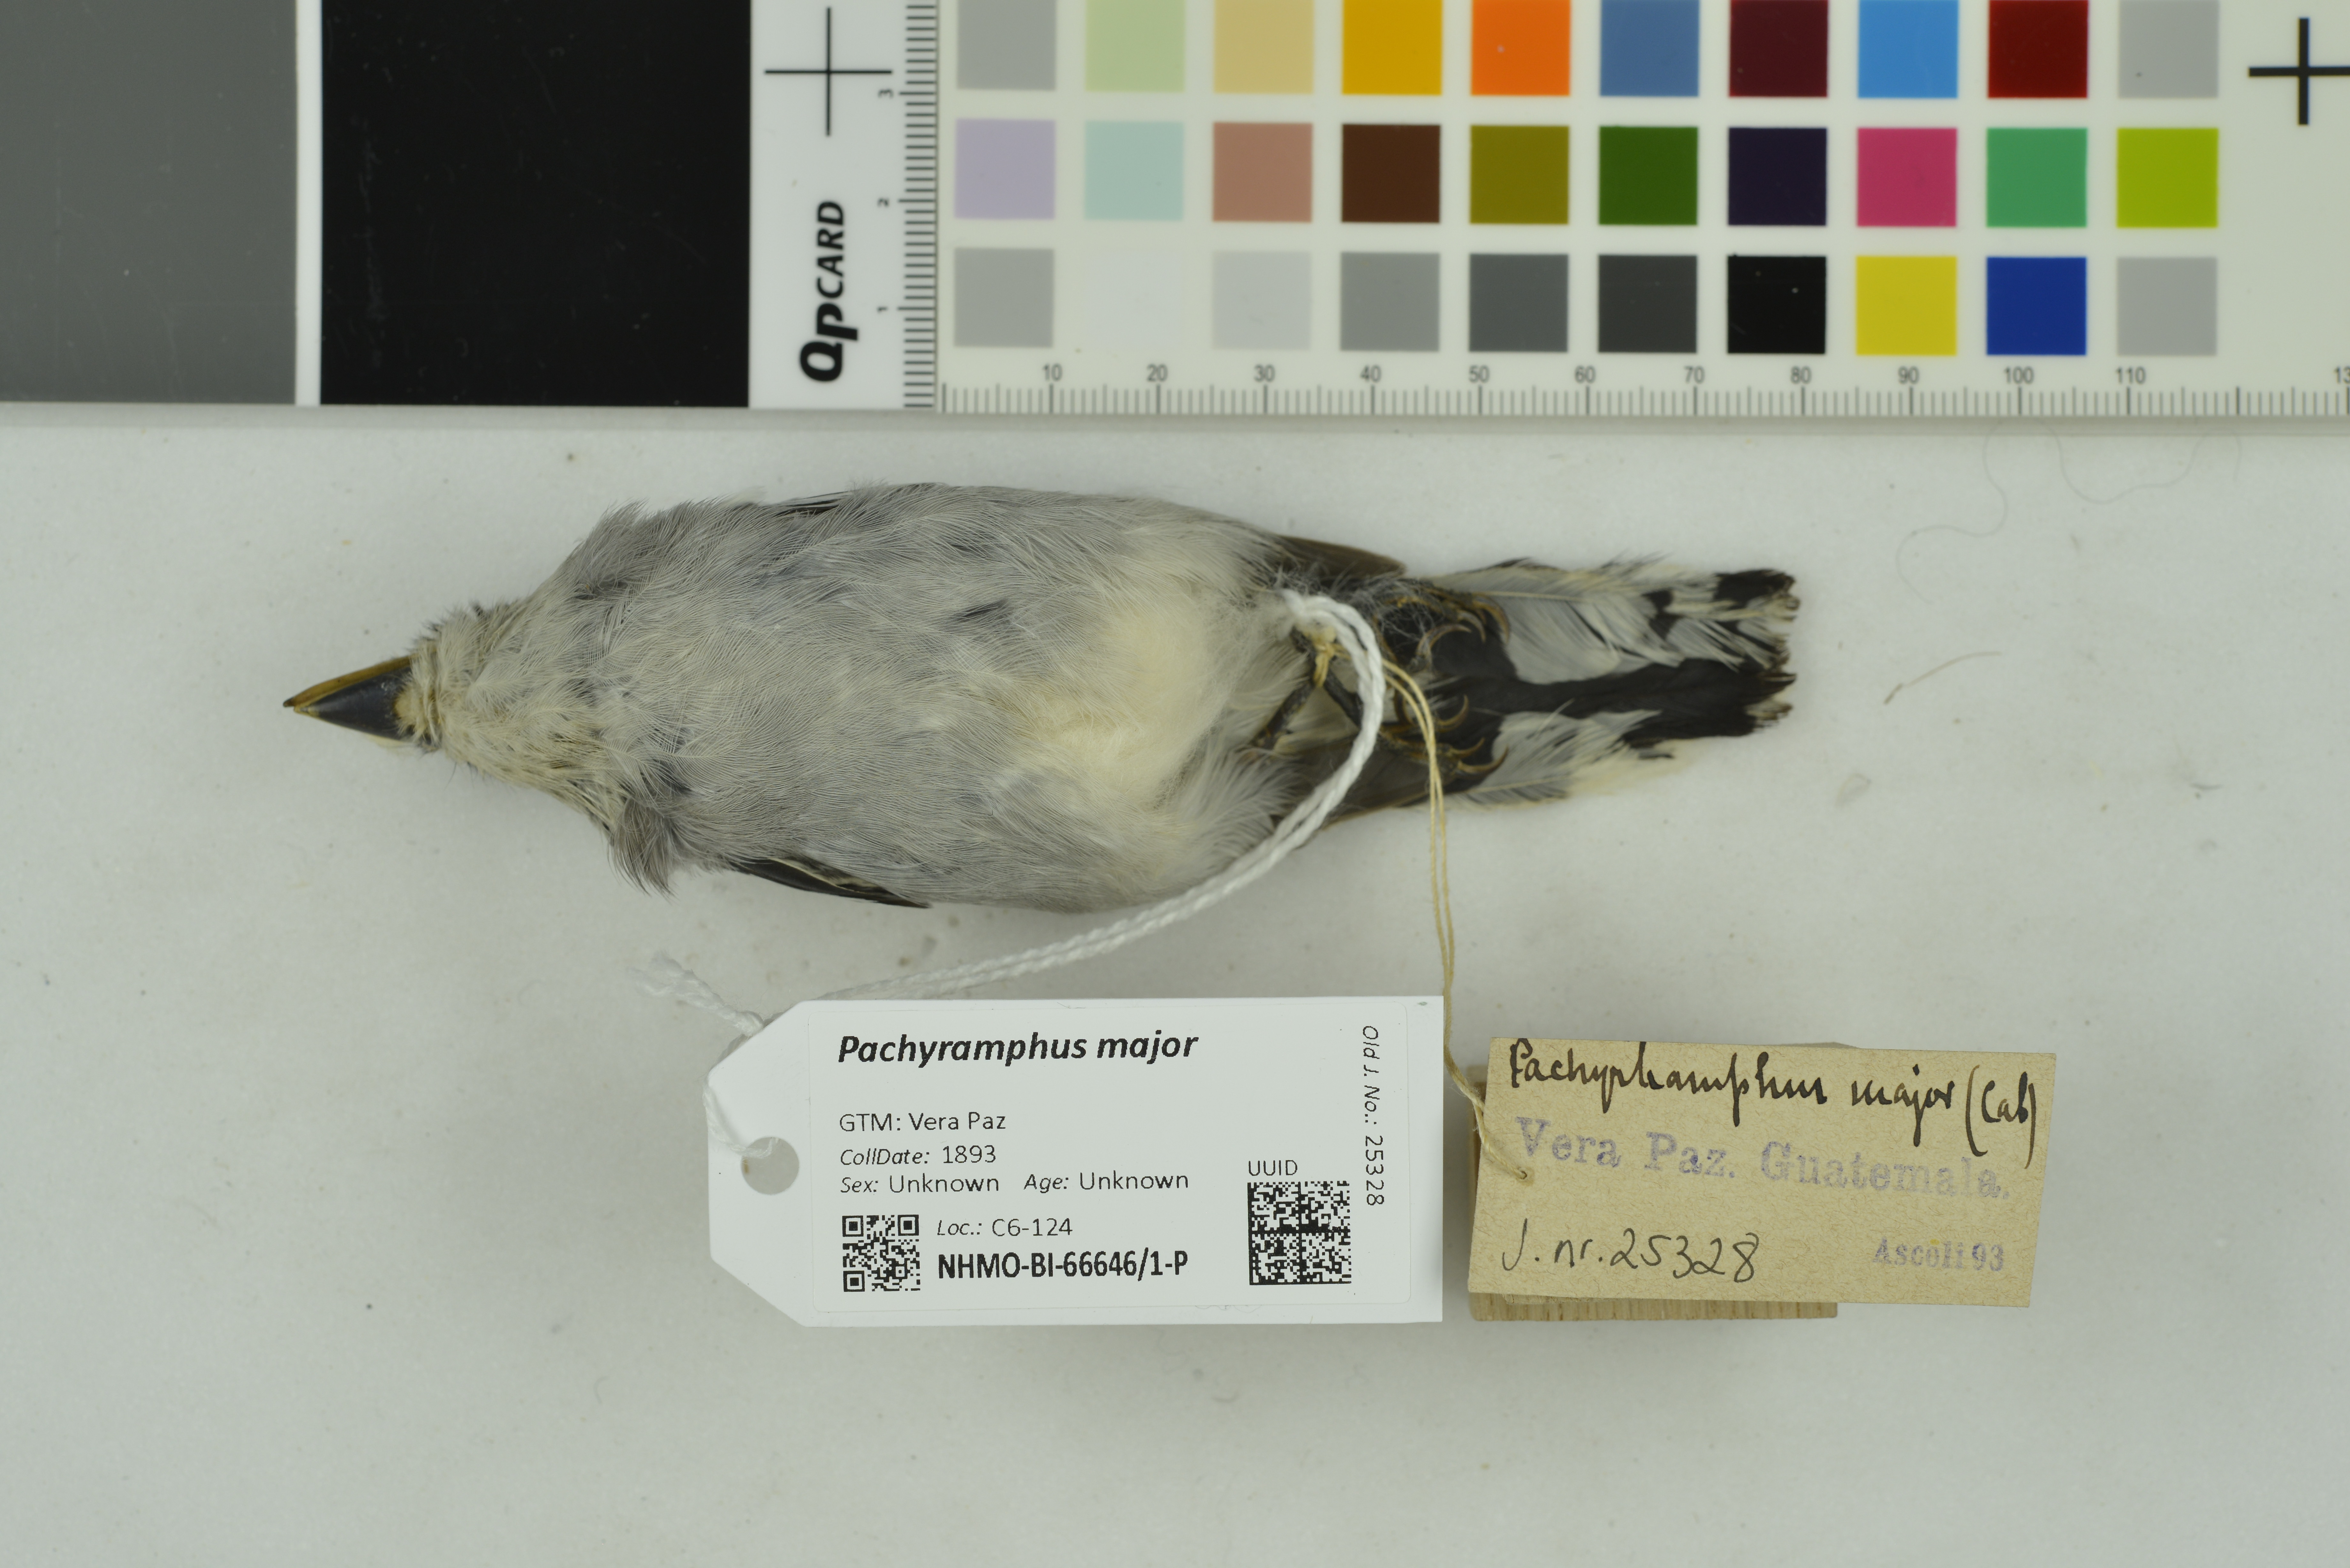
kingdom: Animalia
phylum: Chordata
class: Aves
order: Passeriformes
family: Cotingidae
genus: Pachyramphus
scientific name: Pachyramphus major
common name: Gray-collared becard
